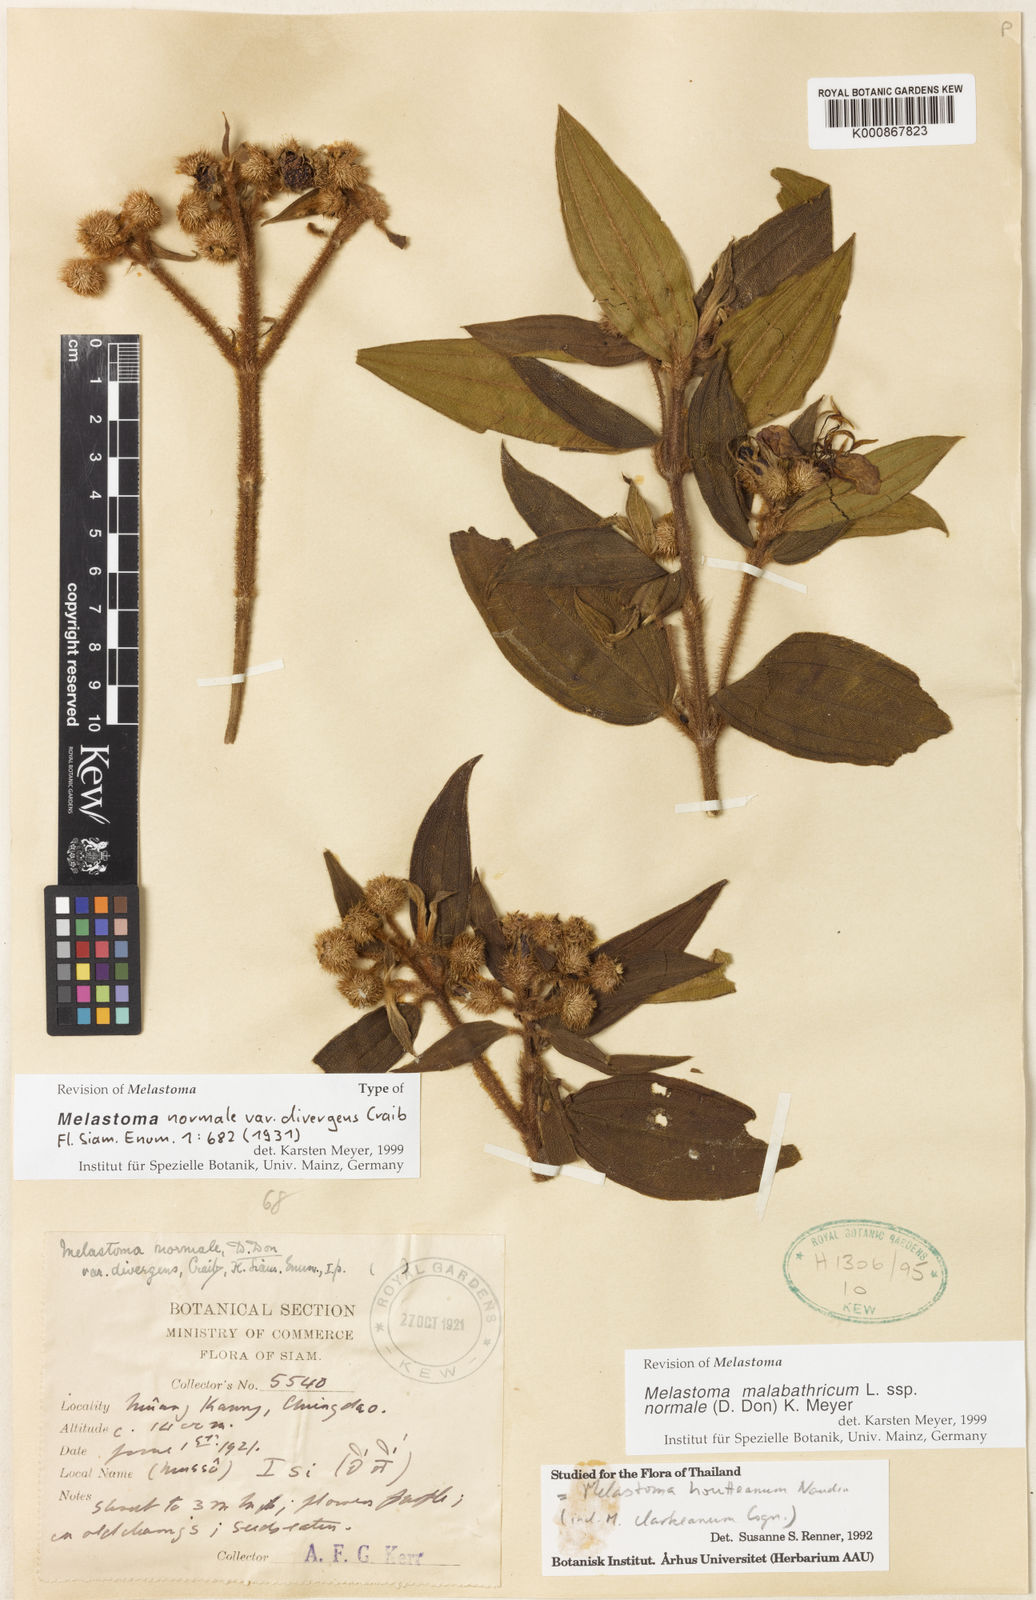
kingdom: Plantae
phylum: Tracheophyta
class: Magnoliopsida
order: Myrtales
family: Melastomataceae
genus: Melastoma
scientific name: Melastoma malabathricum
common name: Indian-rhododendron
